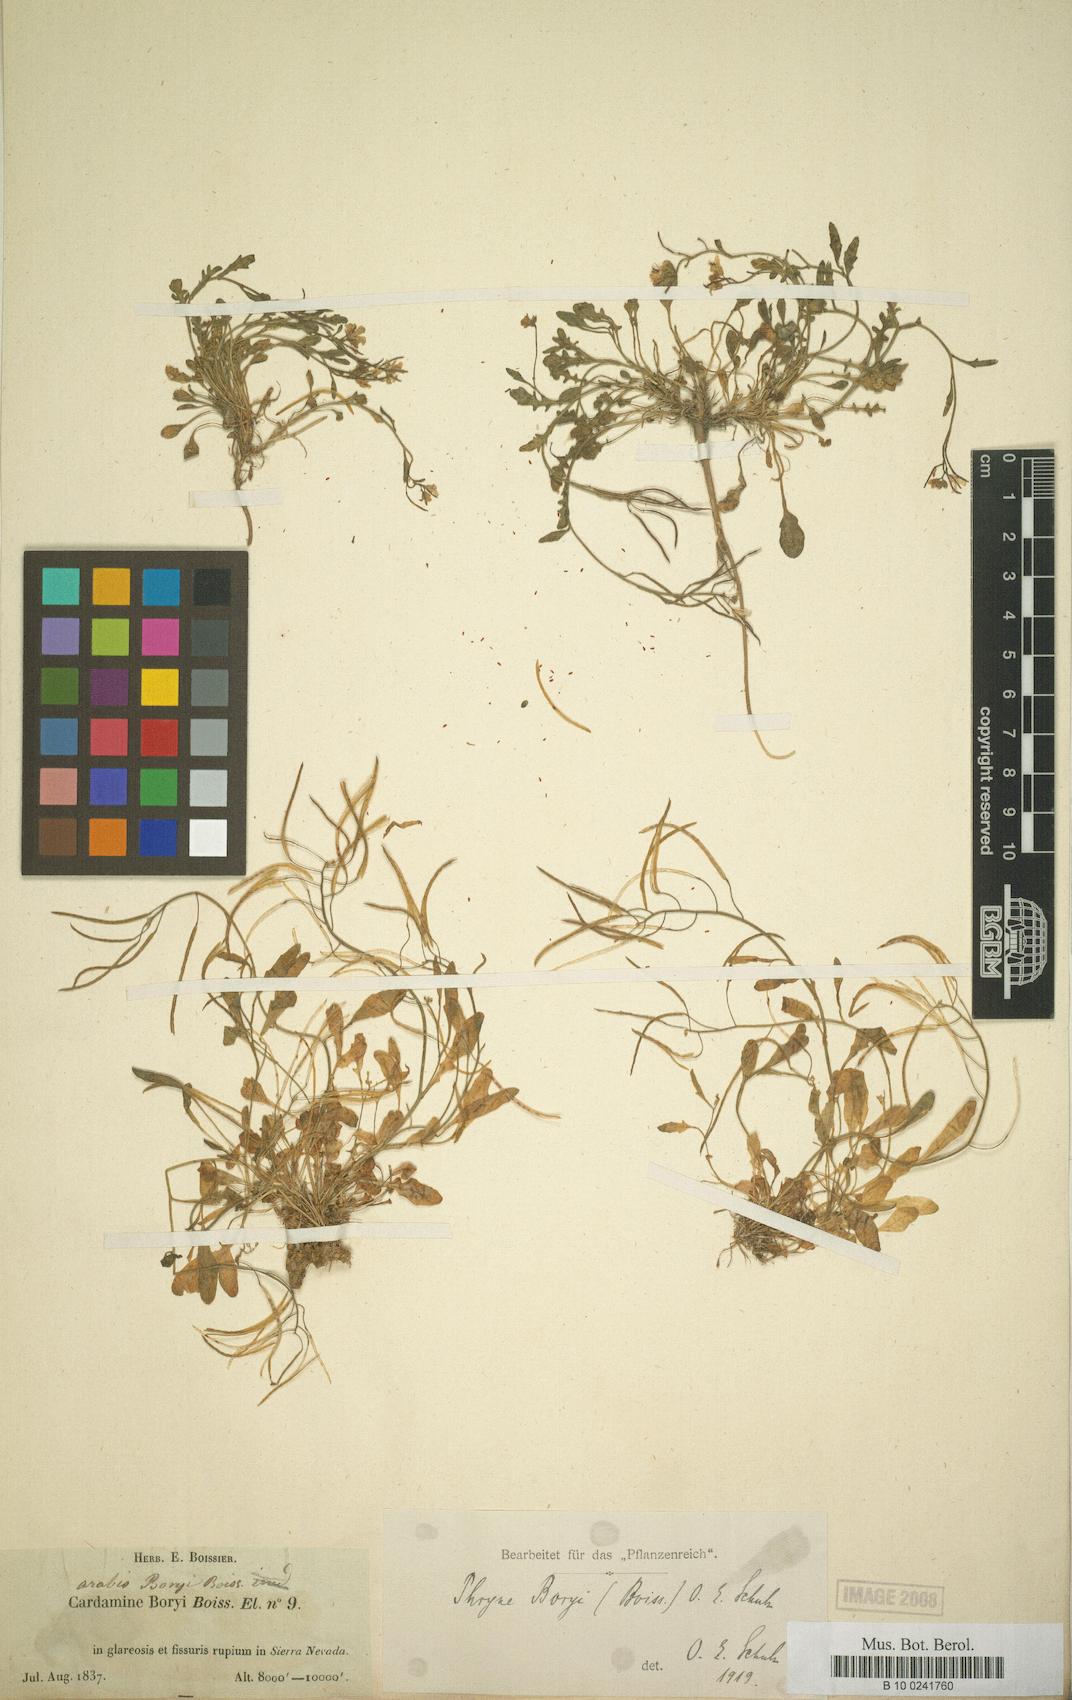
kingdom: Plantae
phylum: Tracheophyta
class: Magnoliopsida
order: Brassicales
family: Brassicaceae
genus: Murbeckiella
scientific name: Murbeckiella boryi
